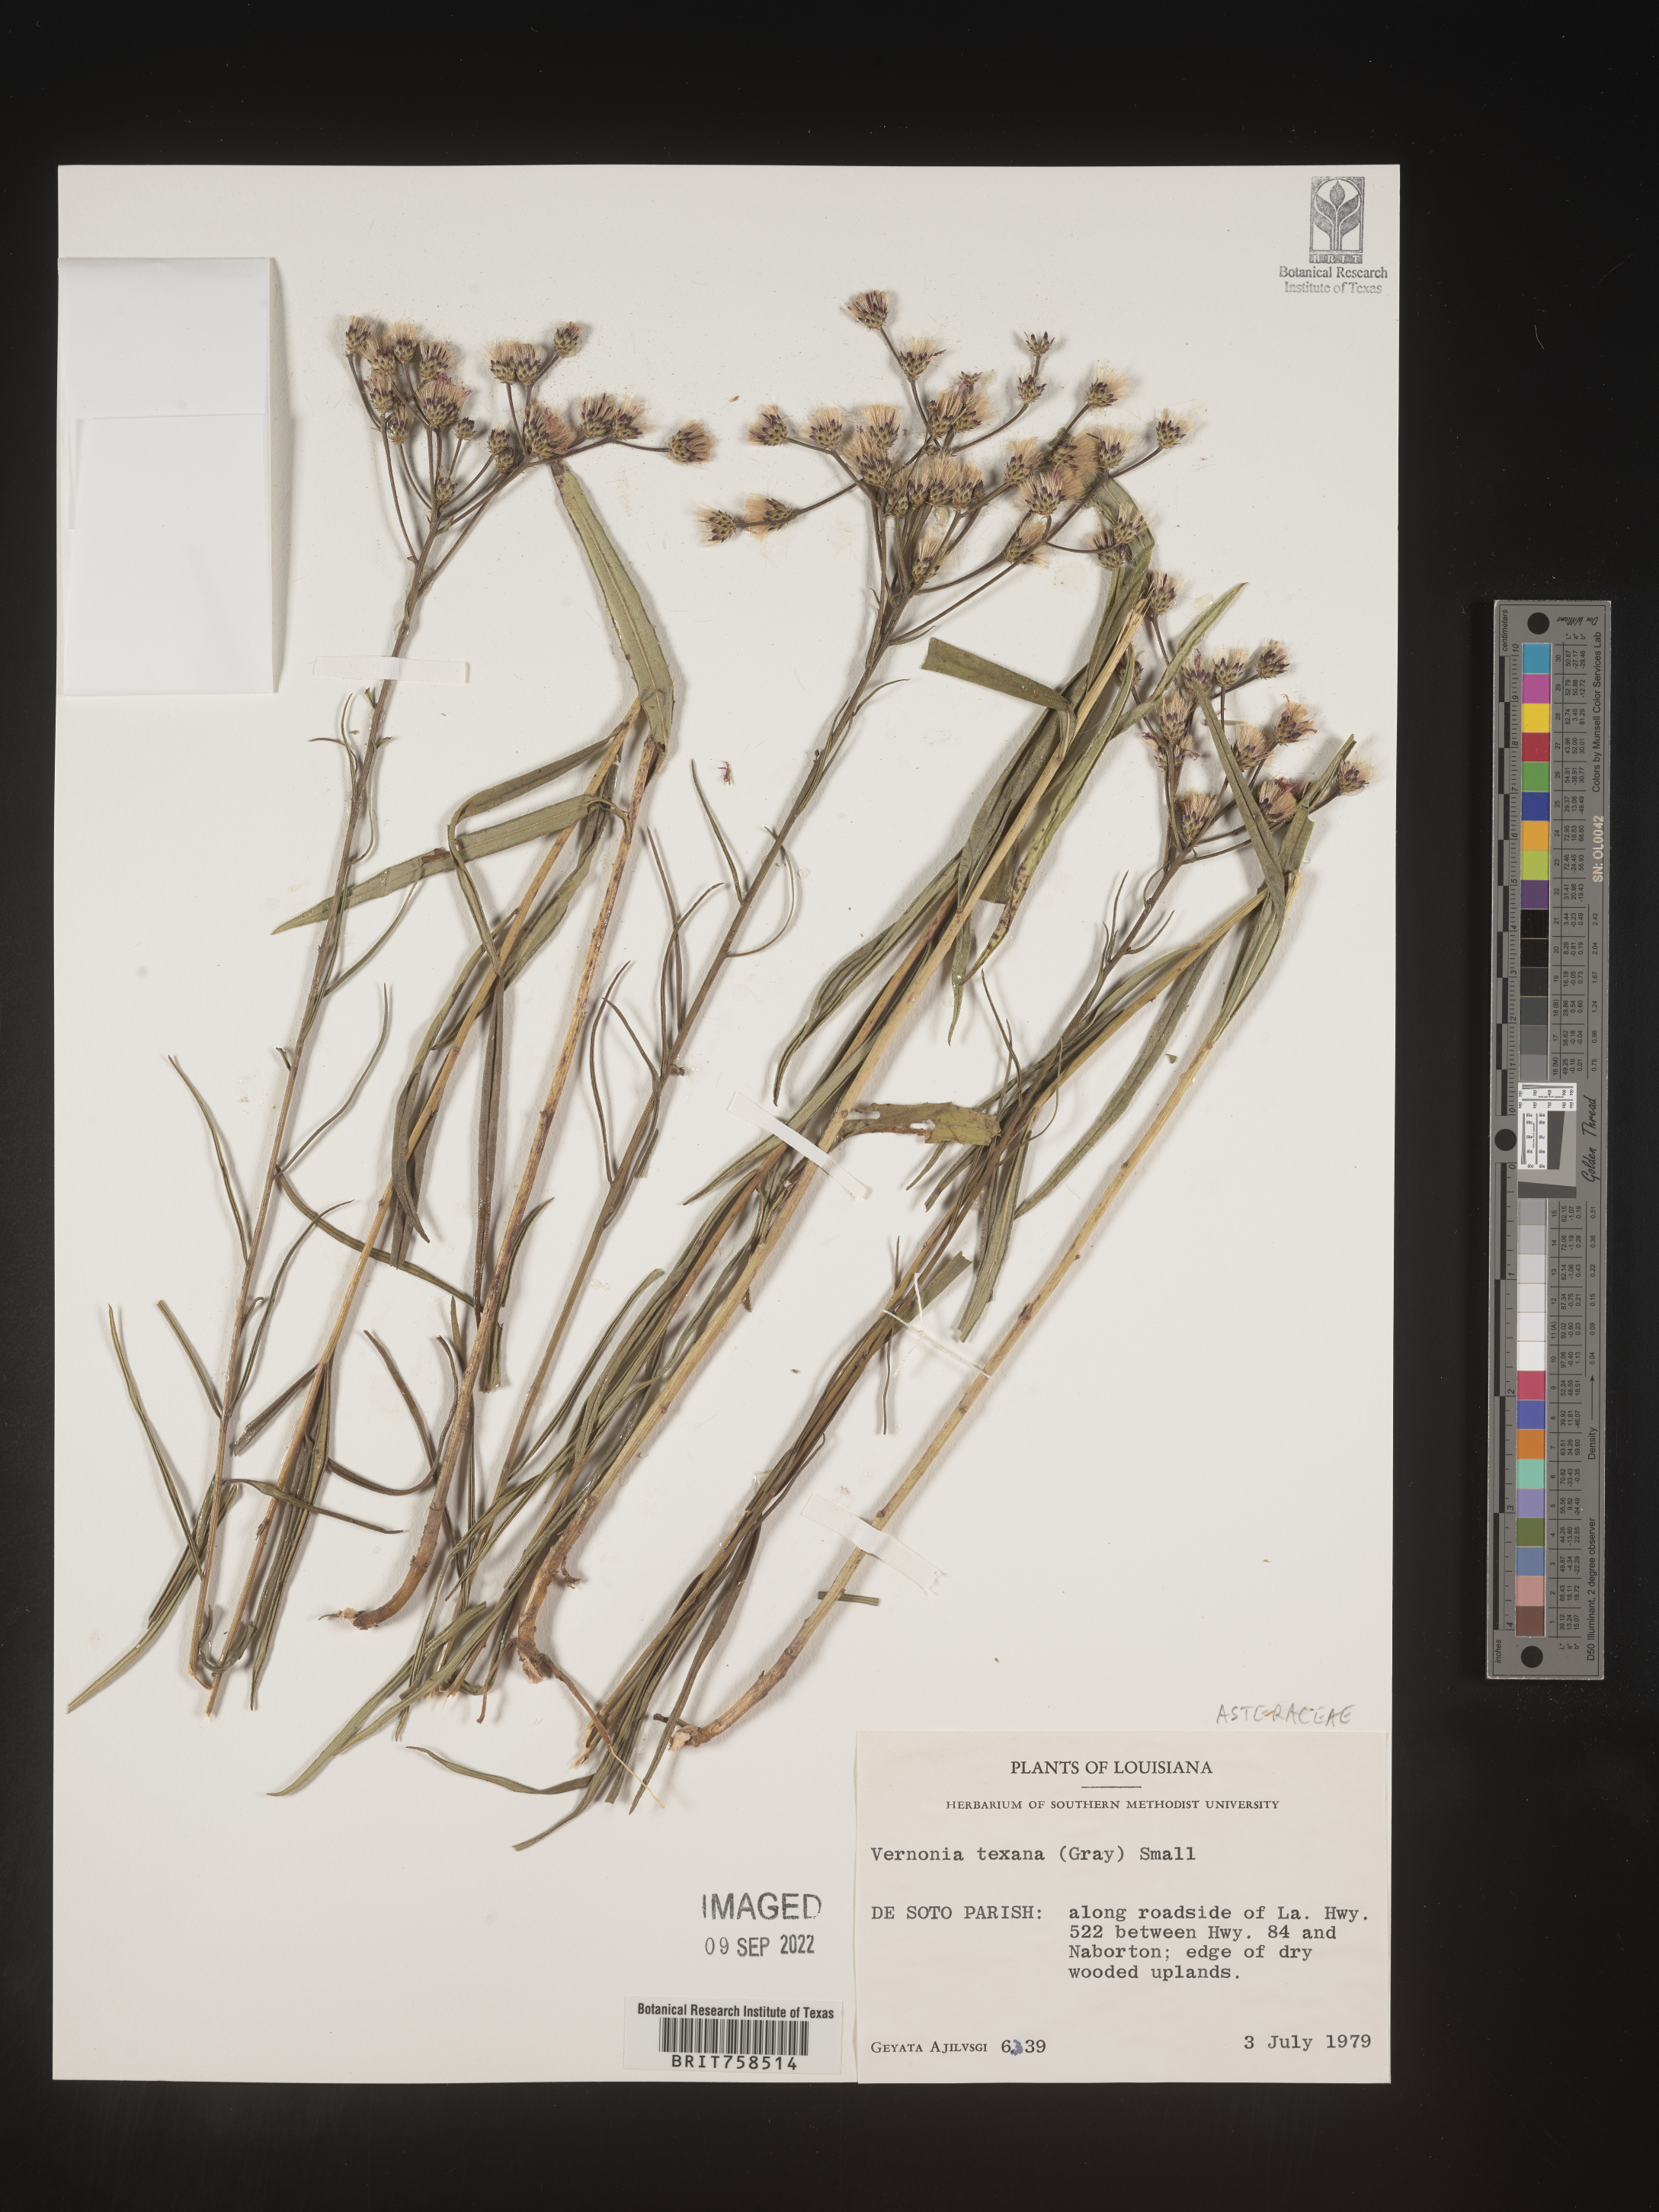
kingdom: Plantae
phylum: Tracheophyta
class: Magnoliopsida
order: Asterales
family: Asteraceae
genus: Vernonia
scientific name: Vernonia texana
